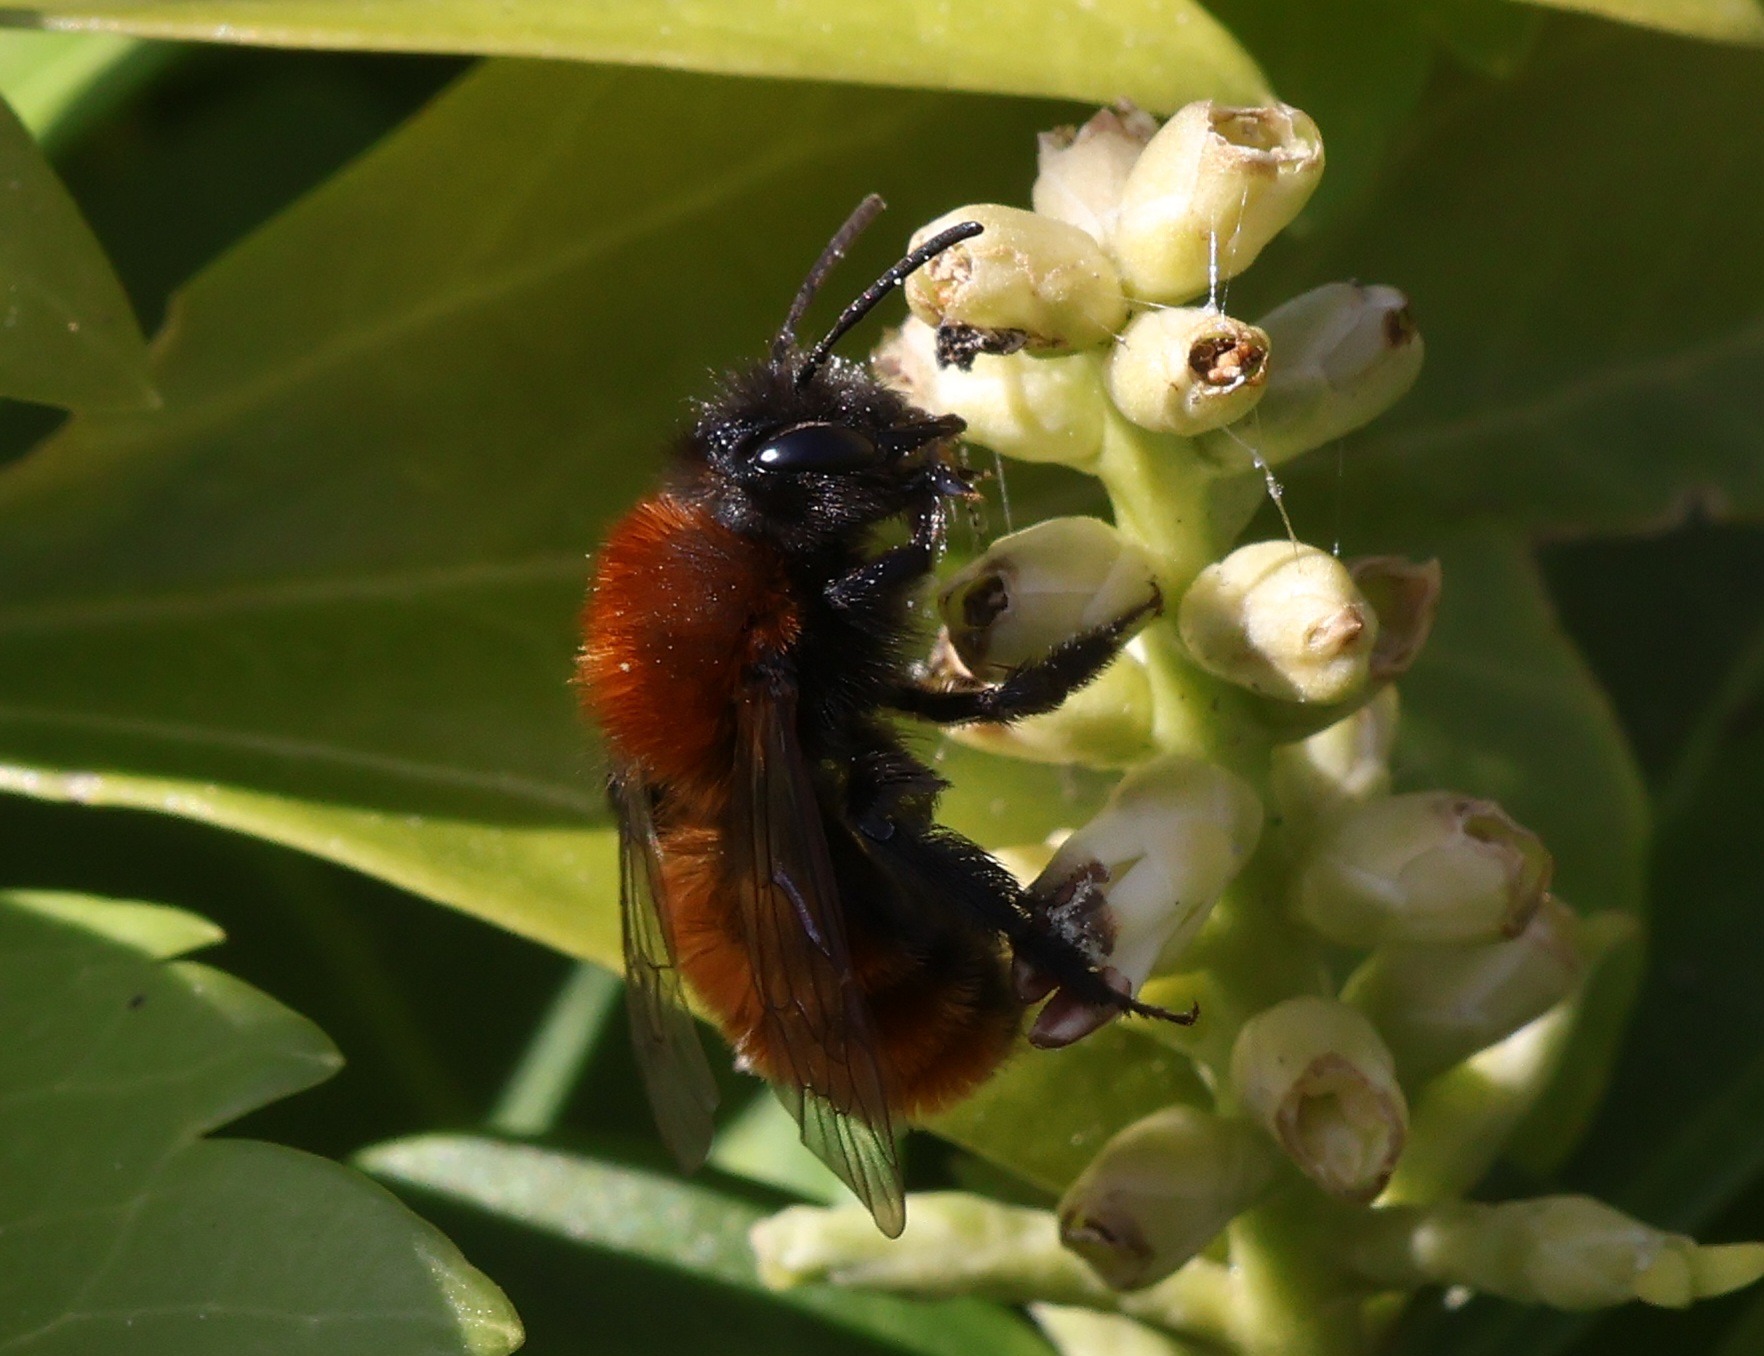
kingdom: Animalia
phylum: Arthropoda
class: Insecta
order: Hymenoptera
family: Andrenidae
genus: Andrena
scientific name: Andrena fulva
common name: Rødpelset jordbi
